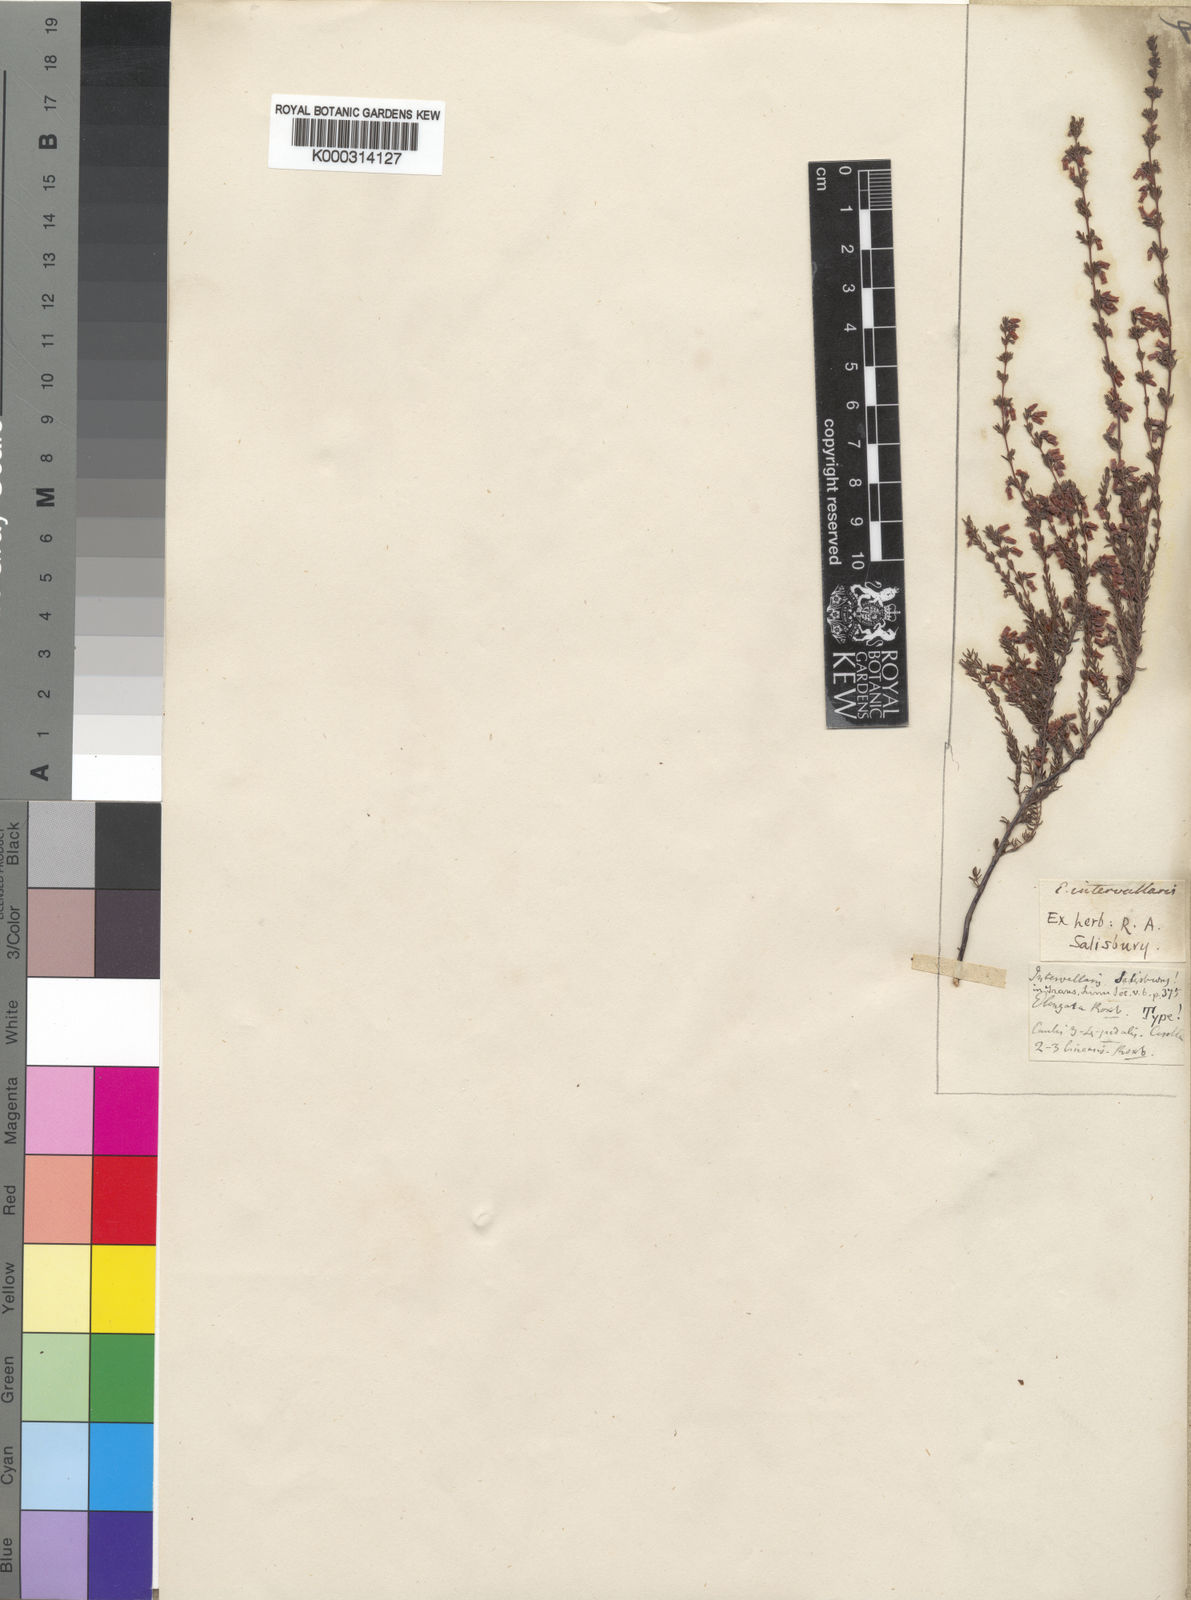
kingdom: Plantae
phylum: Tracheophyta
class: Magnoliopsida
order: Ericales
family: Ericaceae
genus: Erica
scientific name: Erica intervallaris
